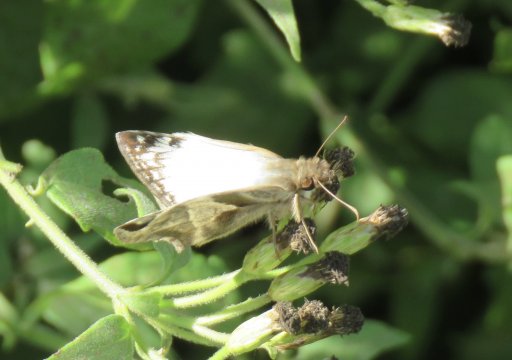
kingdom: Animalia
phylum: Arthropoda
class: Insecta
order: Lepidoptera
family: Hesperiidae
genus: Heliopetes
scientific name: Heliopetes laviana
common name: Laviana White-Skipper
